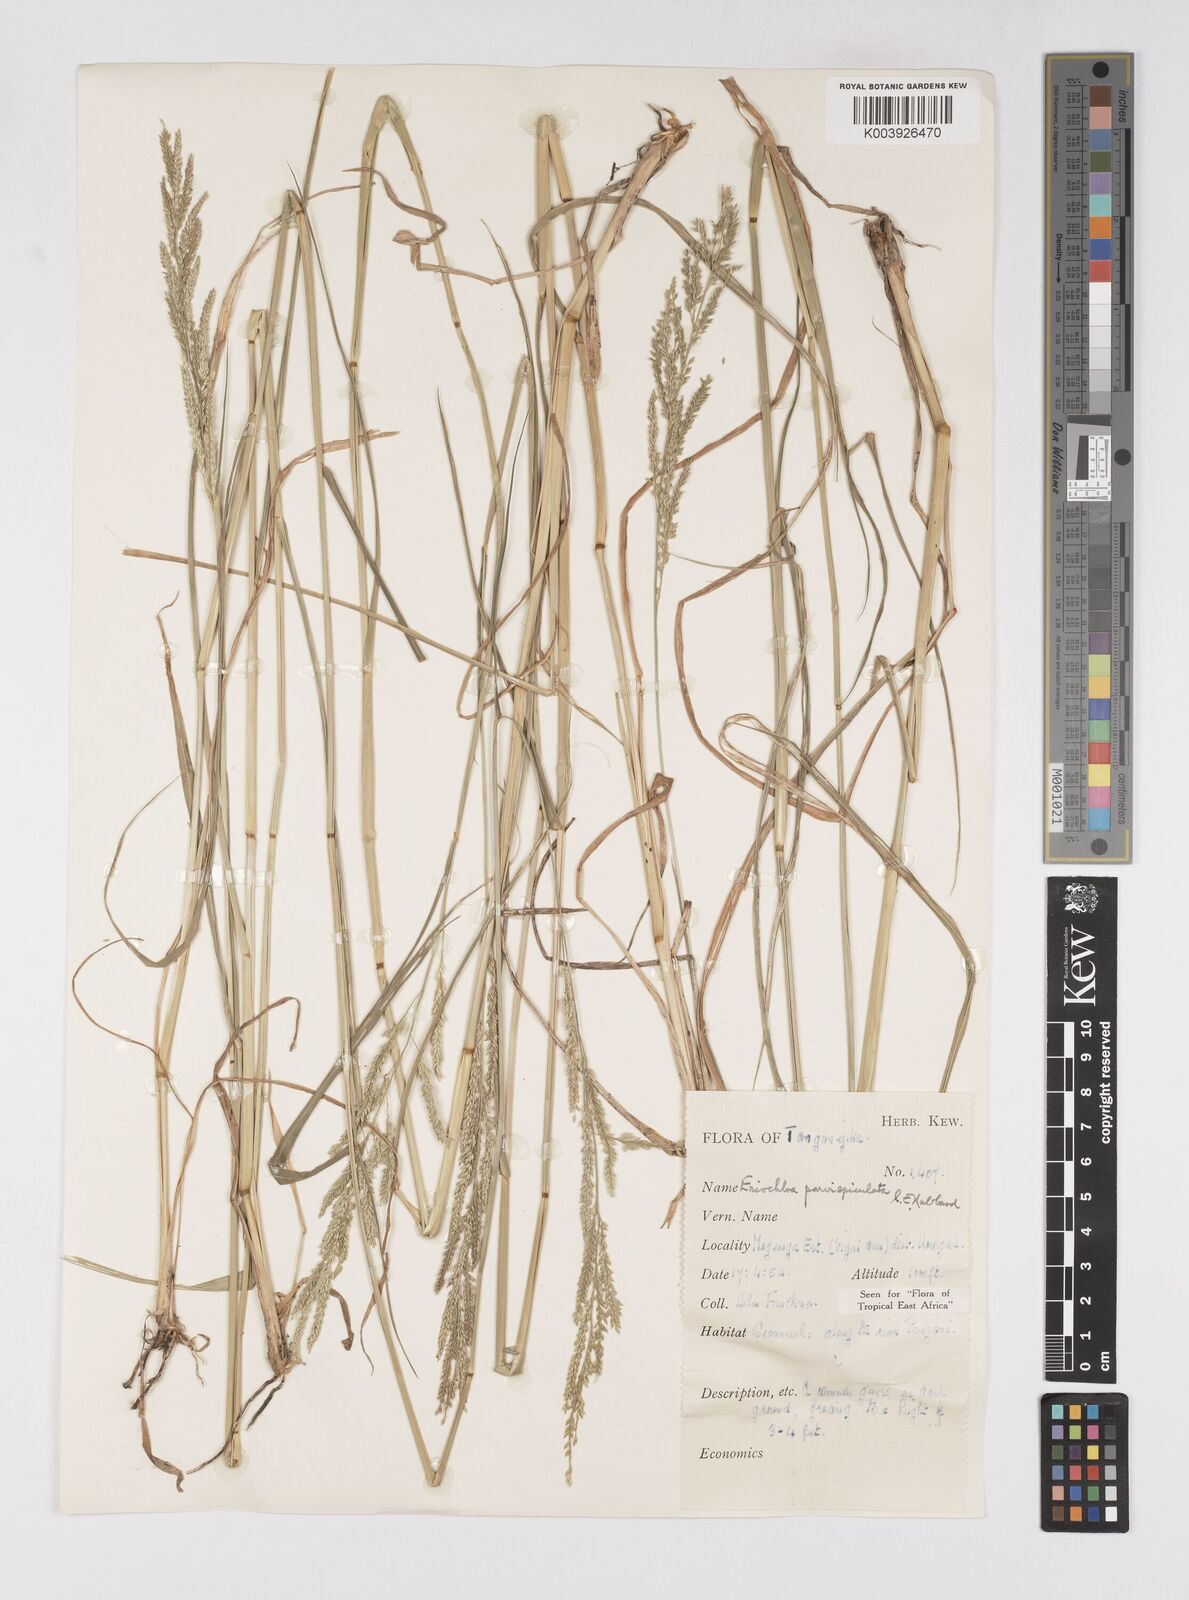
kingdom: Plantae
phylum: Tracheophyta
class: Liliopsida
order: Poales
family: Poaceae
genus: Eriochloa
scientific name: Eriochloa parvispiculata
